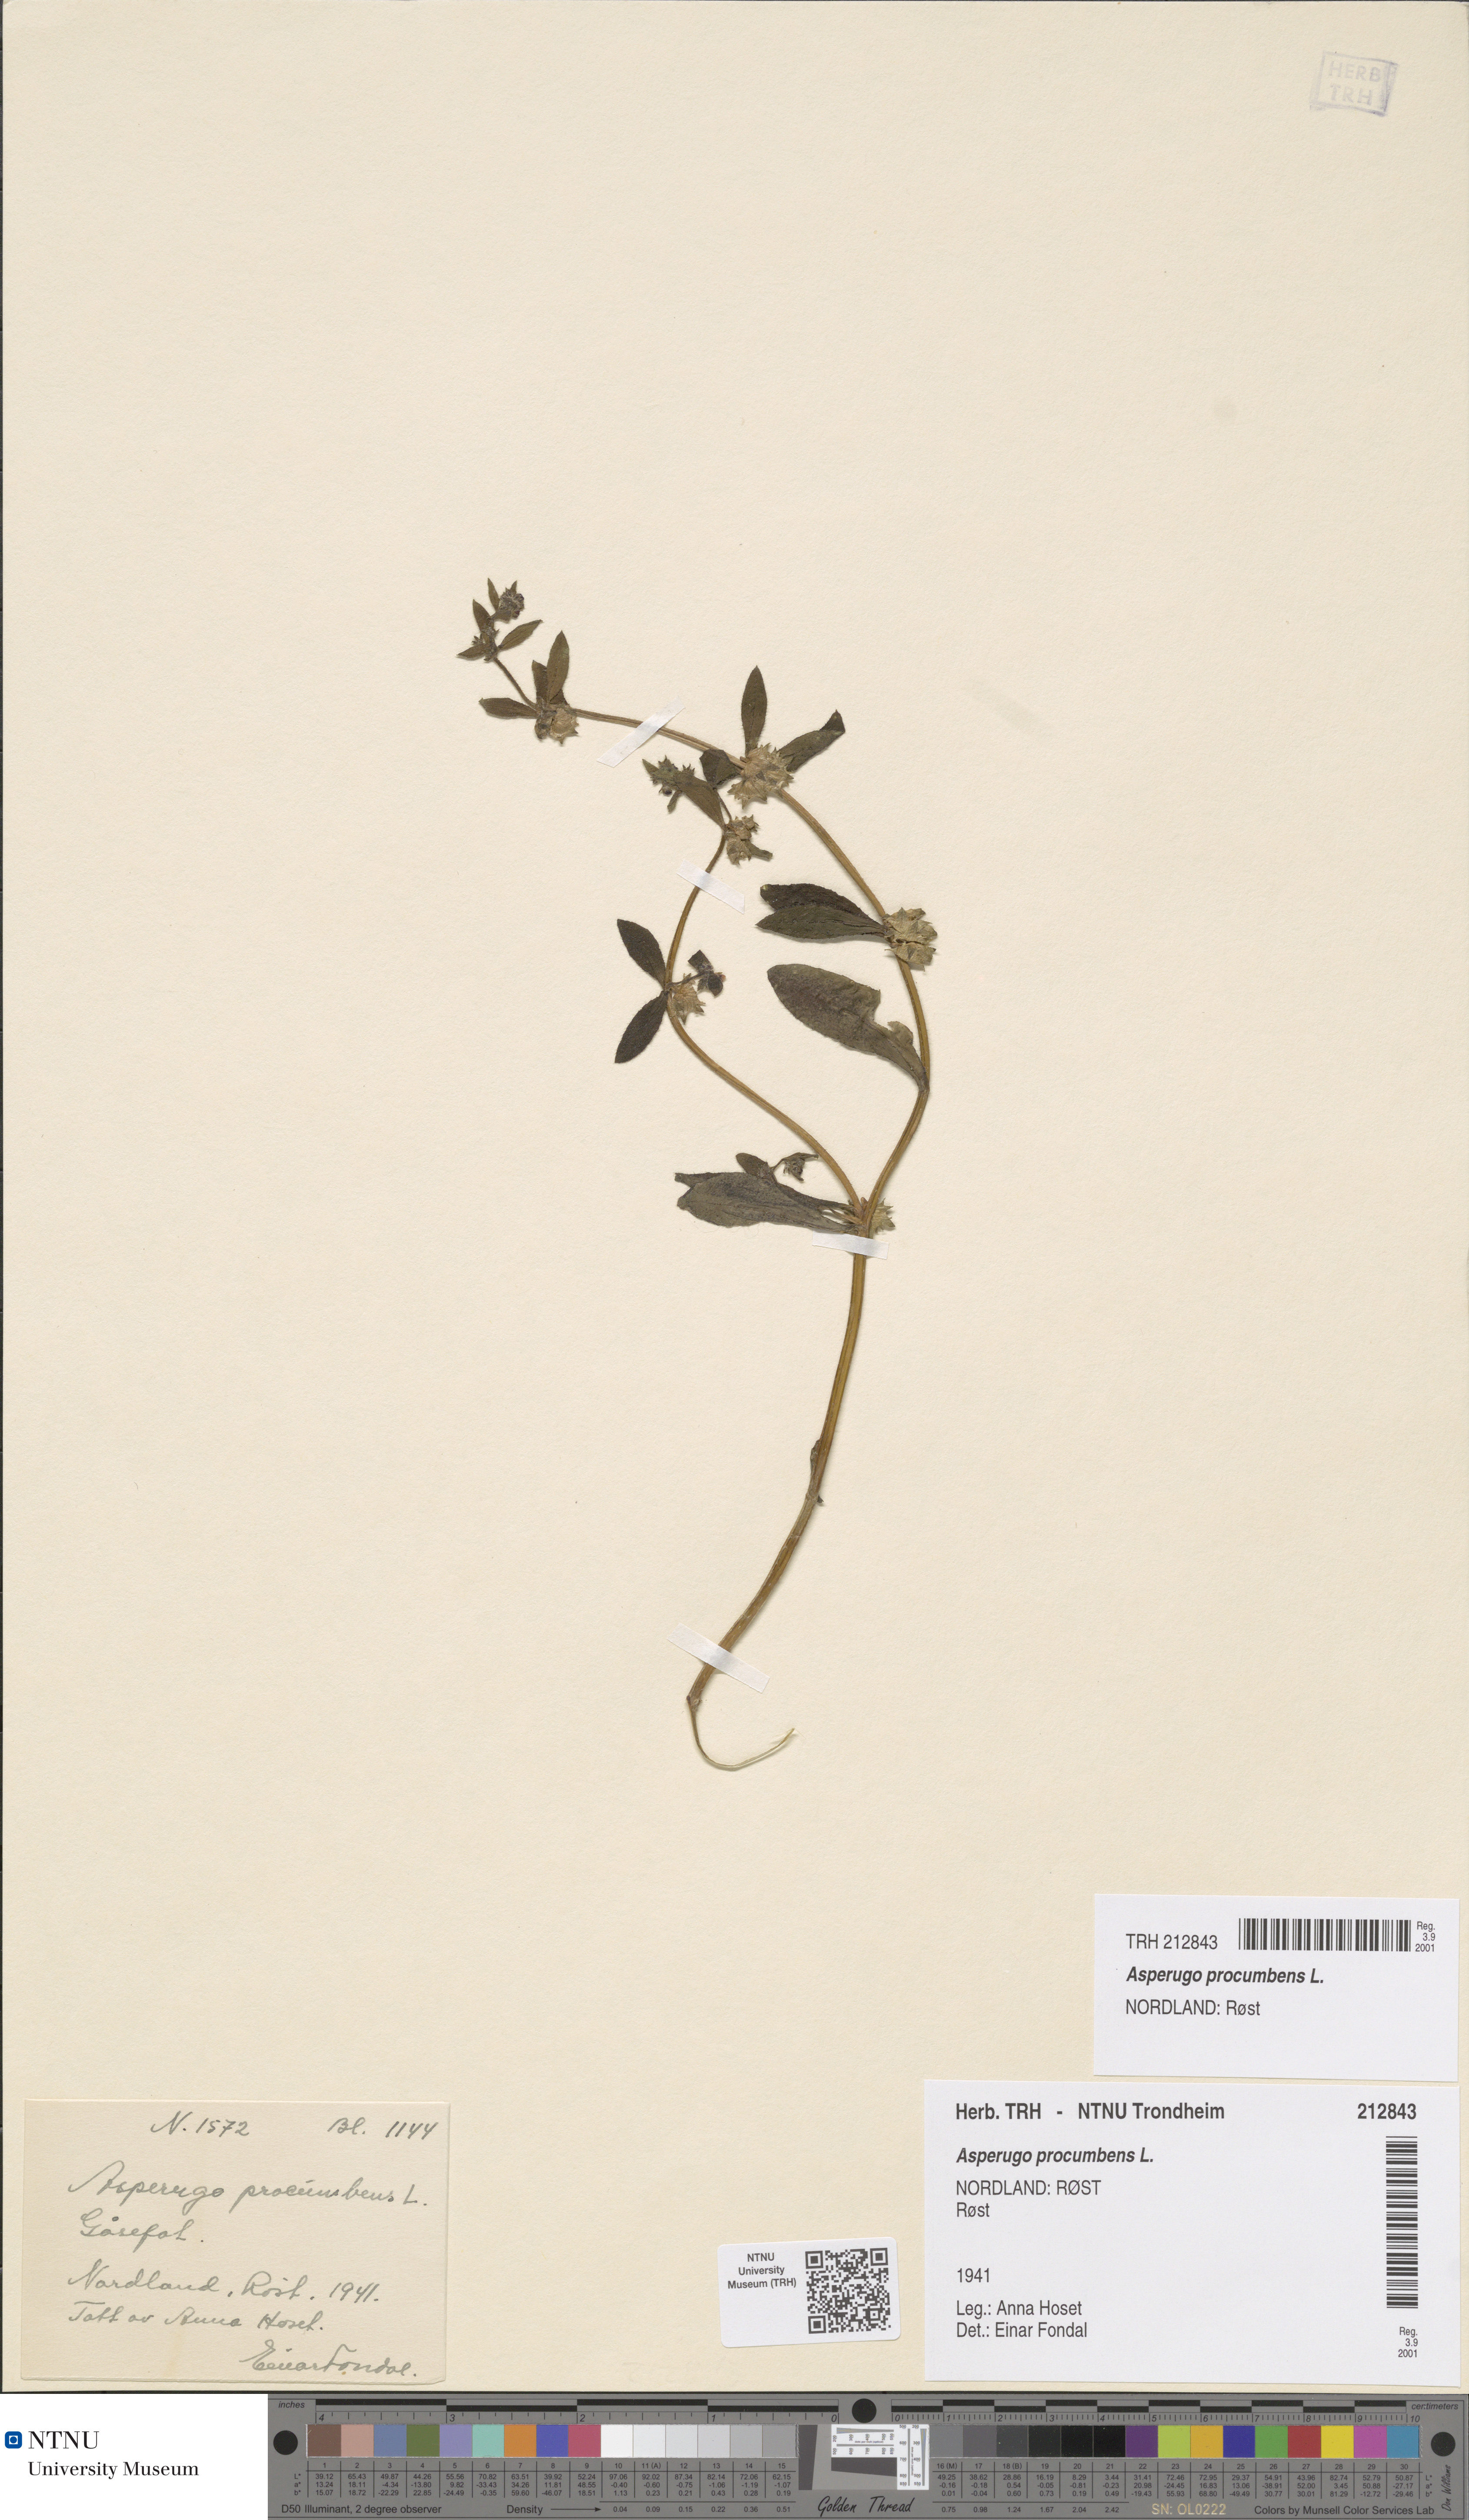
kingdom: Plantae
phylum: Tracheophyta
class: Magnoliopsida
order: Boraginales
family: Boraginaceae
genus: Asperugo
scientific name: Asperugo procumbens
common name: Madwort
